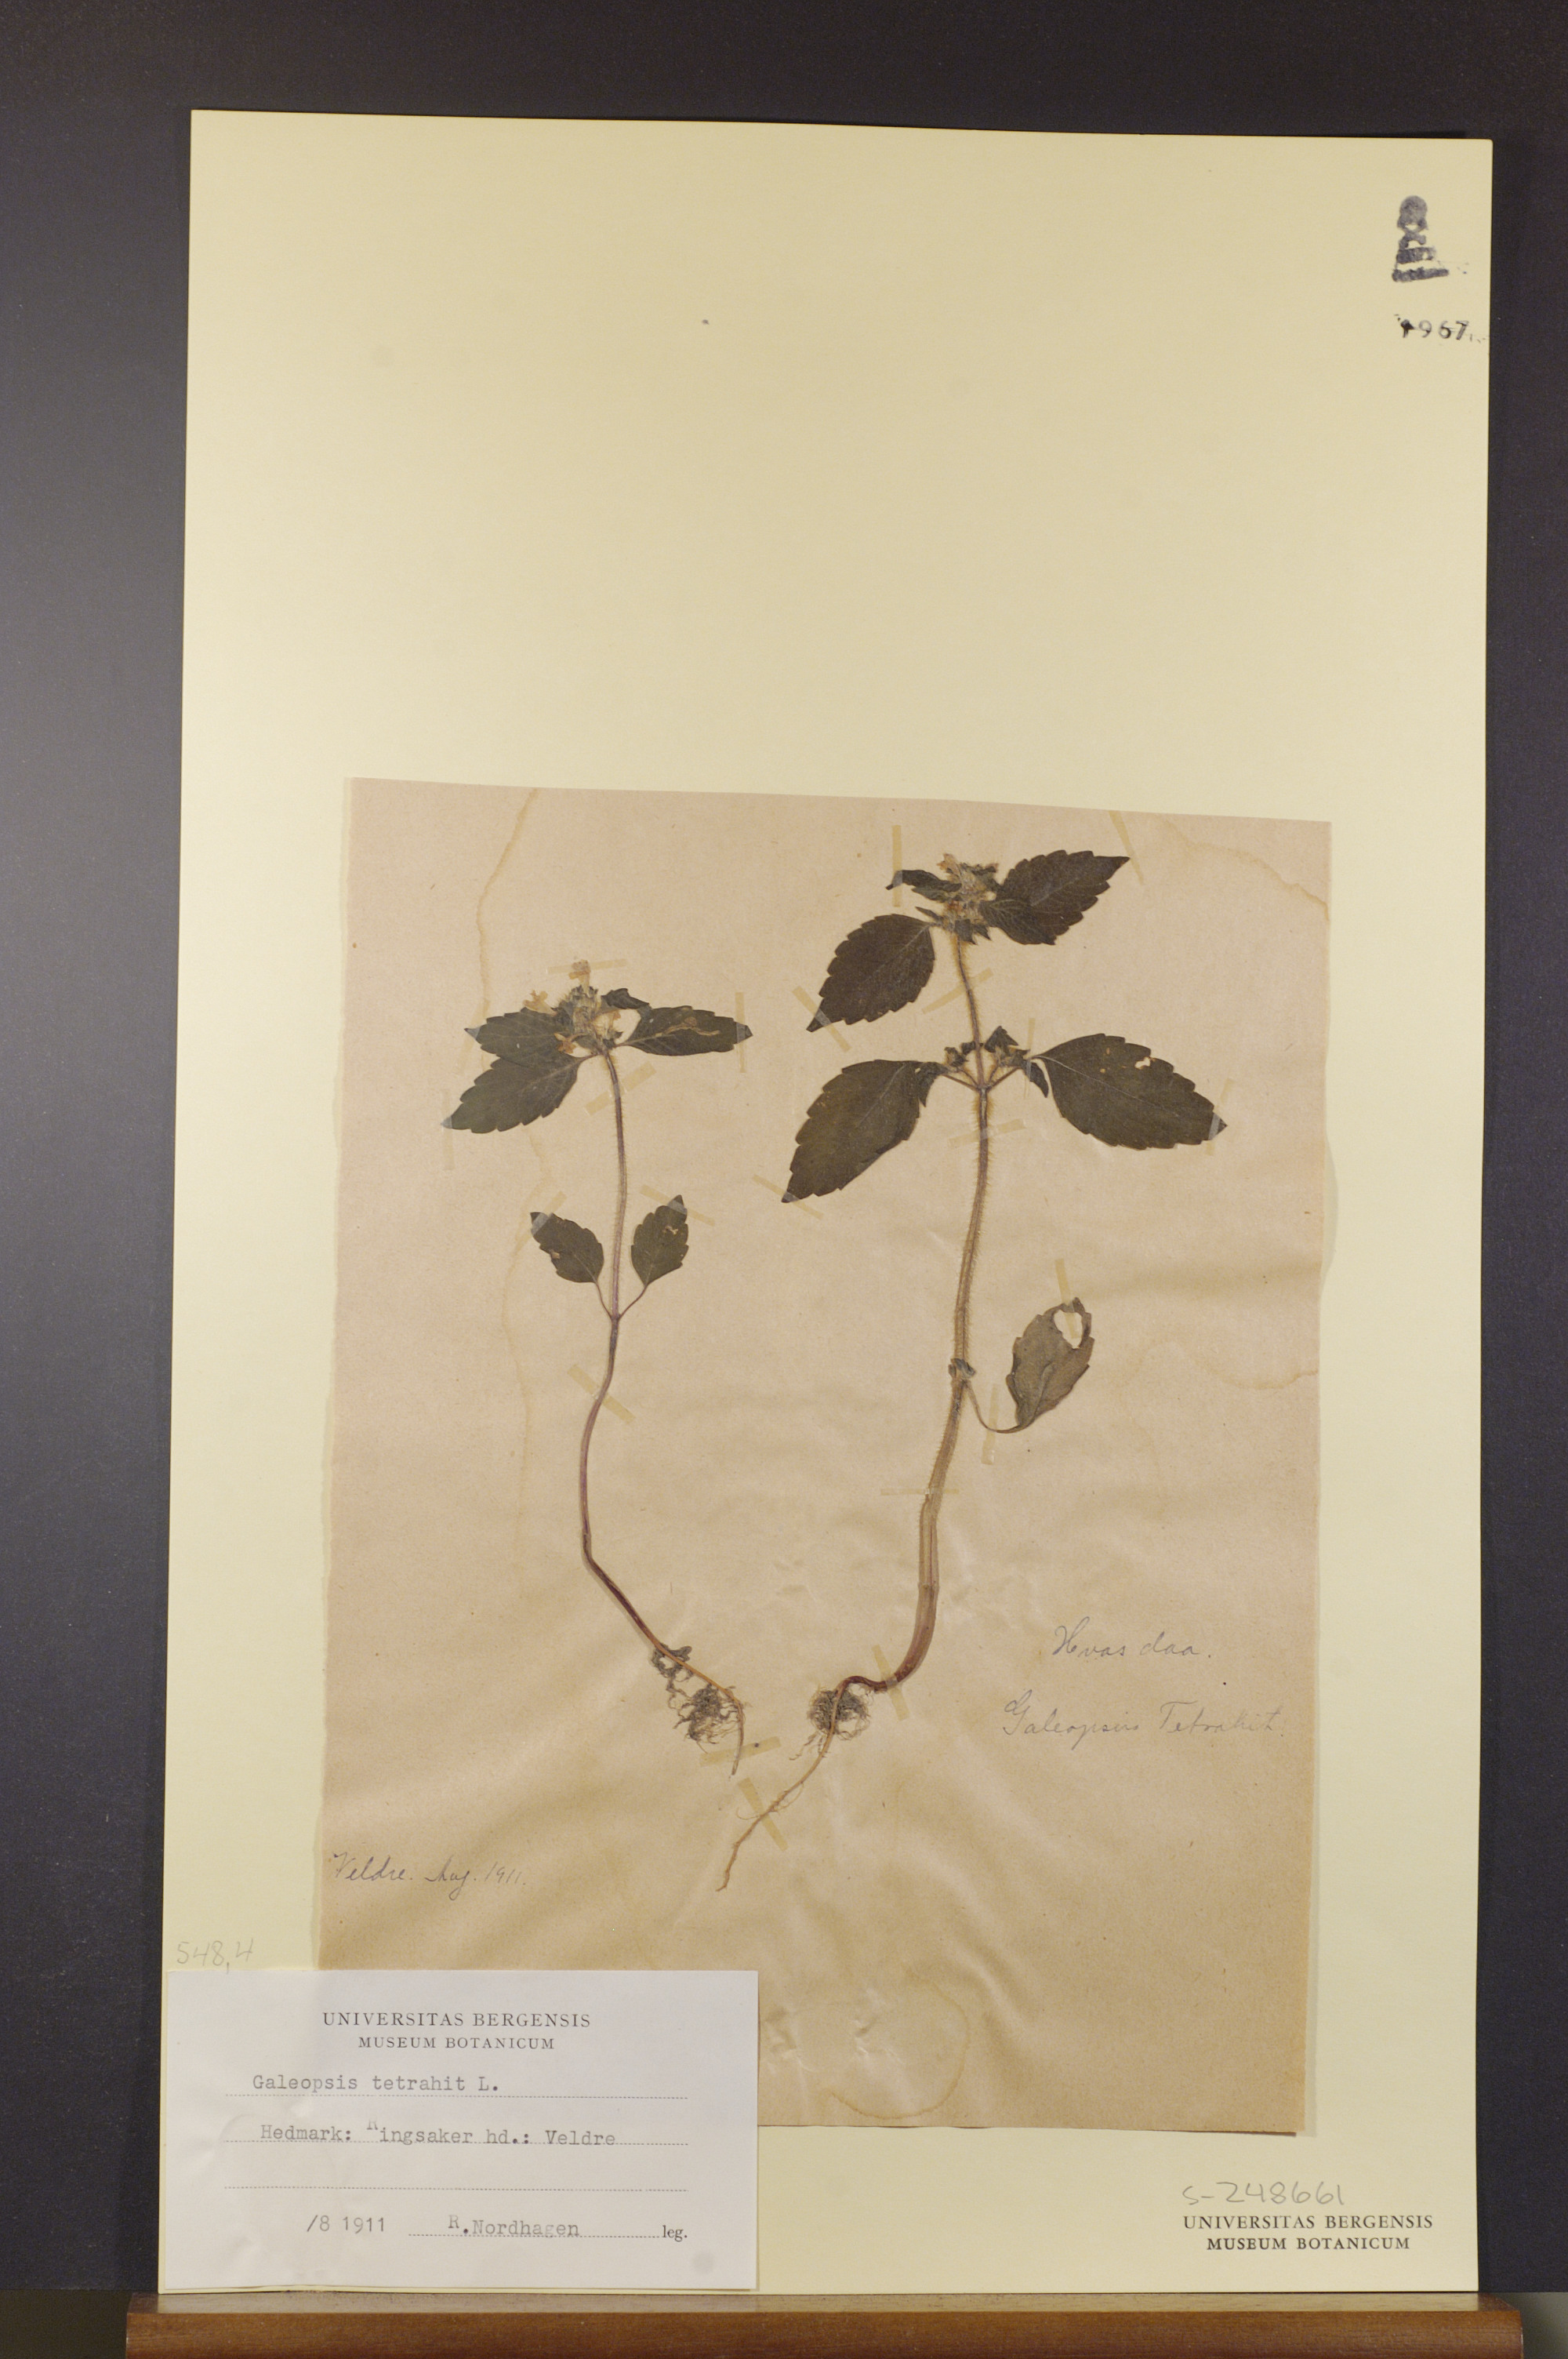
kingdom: Plantae
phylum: Tracheophyta
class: Magnoliopsida
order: Lamiales
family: Lamiaceae
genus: Galeopsis
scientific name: Galeopsis tetrahit
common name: Common hemp-nettle
